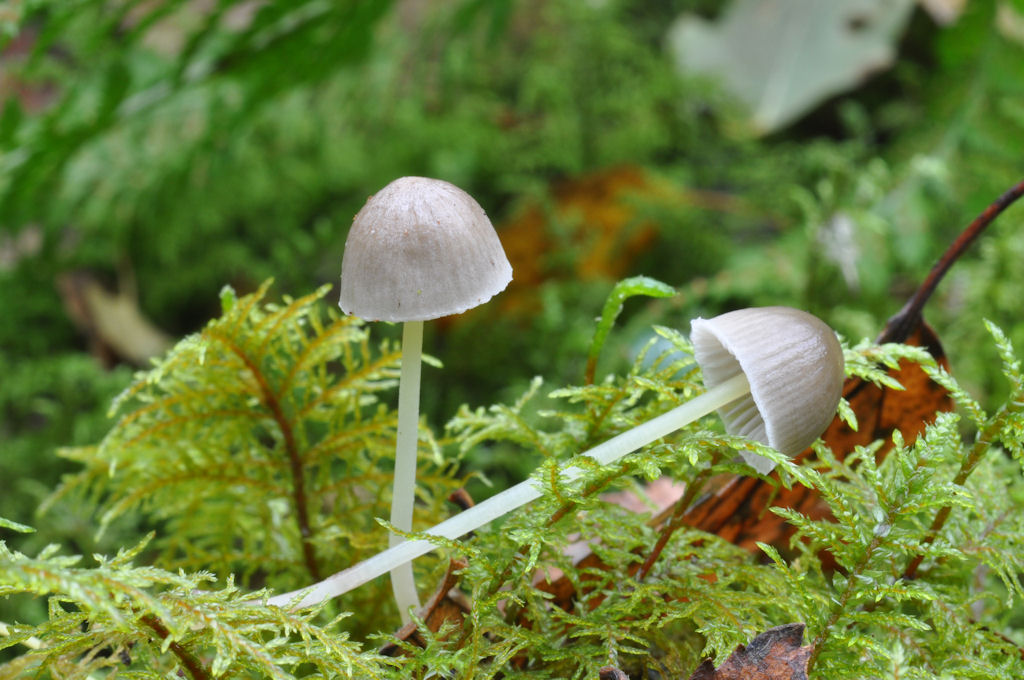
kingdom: Fungi
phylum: Basidiomycota
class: Agaricomycetes
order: Agaricales
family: Mycenaceae
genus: Mycena
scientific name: Mycena epipterygia
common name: gulstokket huesvamp
